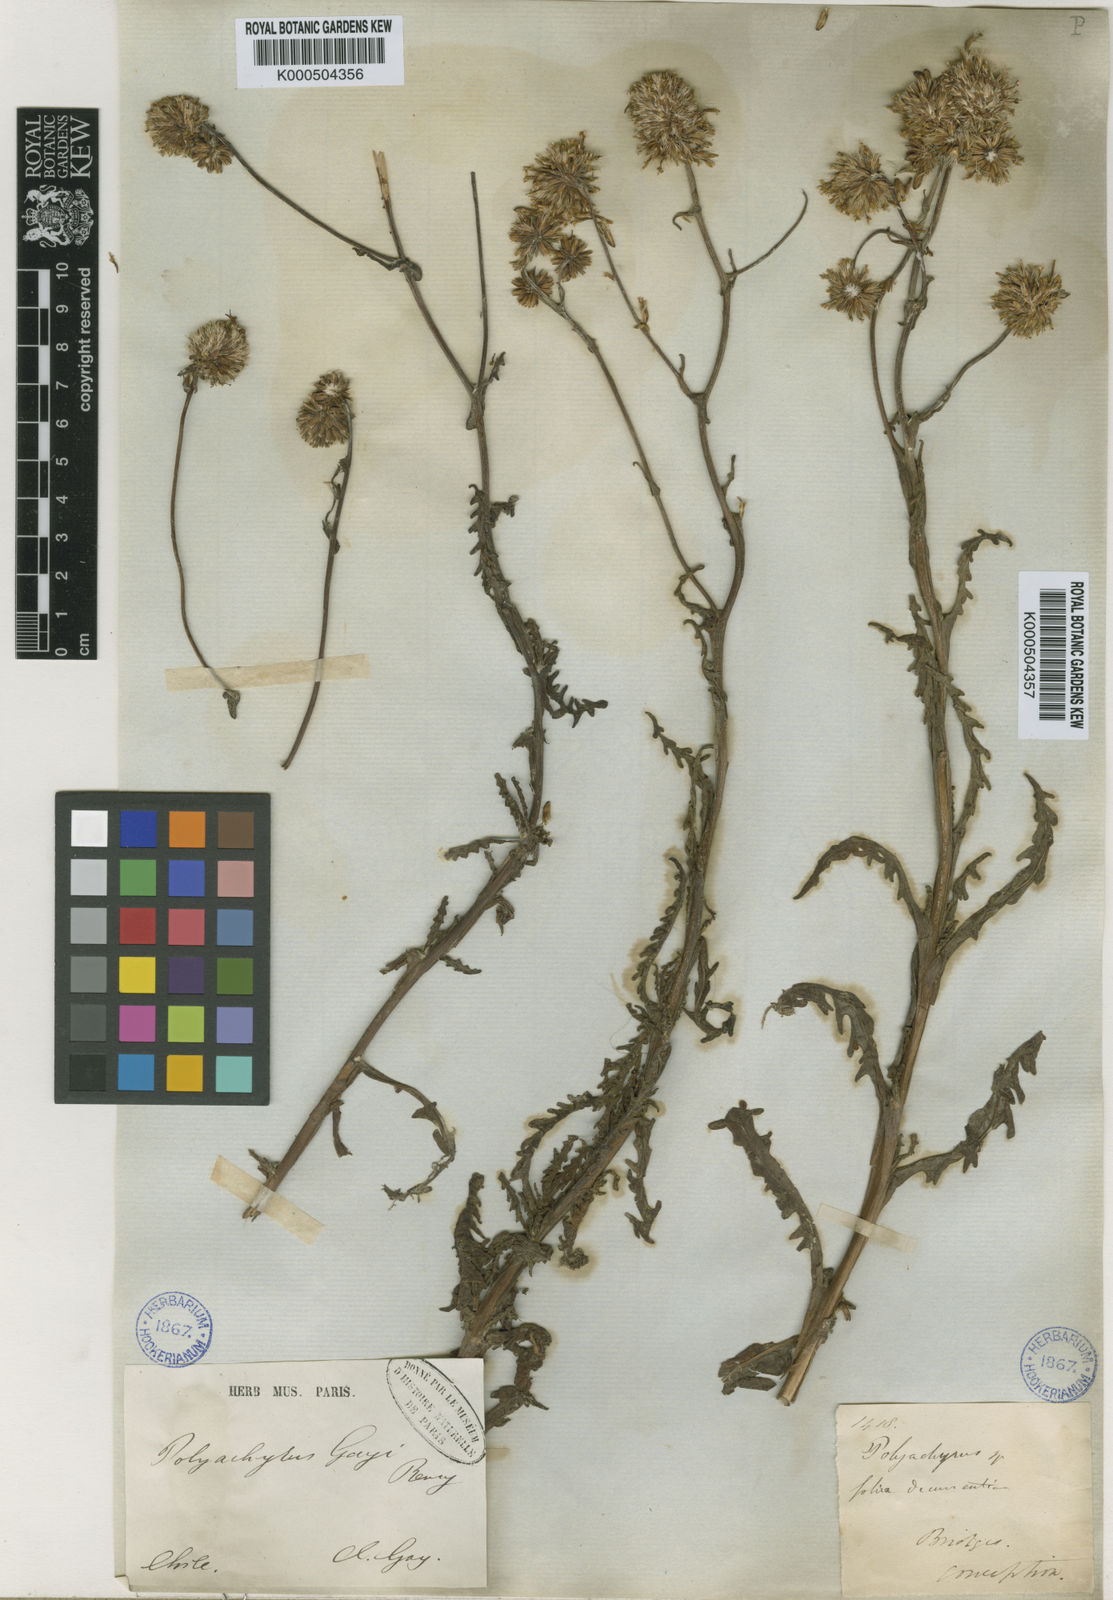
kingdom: Plantae
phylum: Tracheophyta
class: Magnoliopsida
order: Asterales
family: Asteraceae
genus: Polyachyrus
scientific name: Polyachyrus gayi
